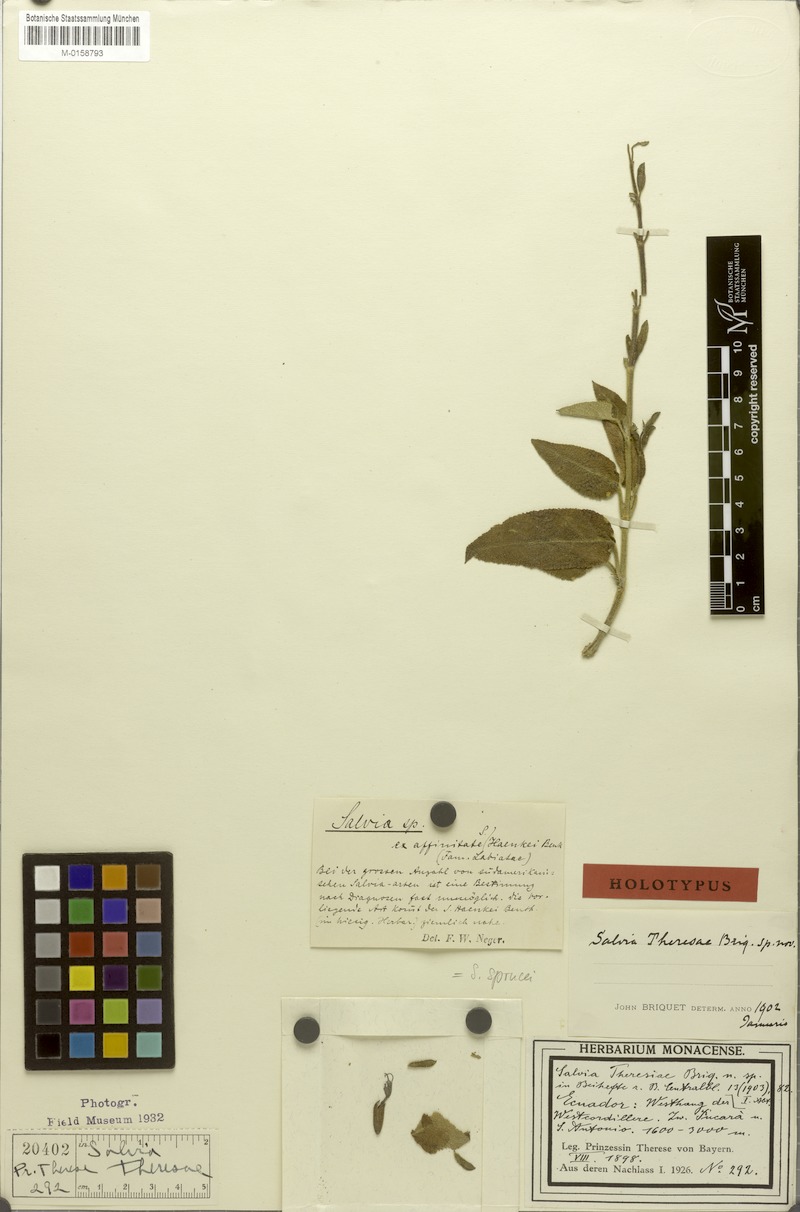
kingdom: Plantae
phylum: Tracheophyta
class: Magnoliopsida
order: Lamiales
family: Lamiaceae
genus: Salvia
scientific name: Salvia sprucei
